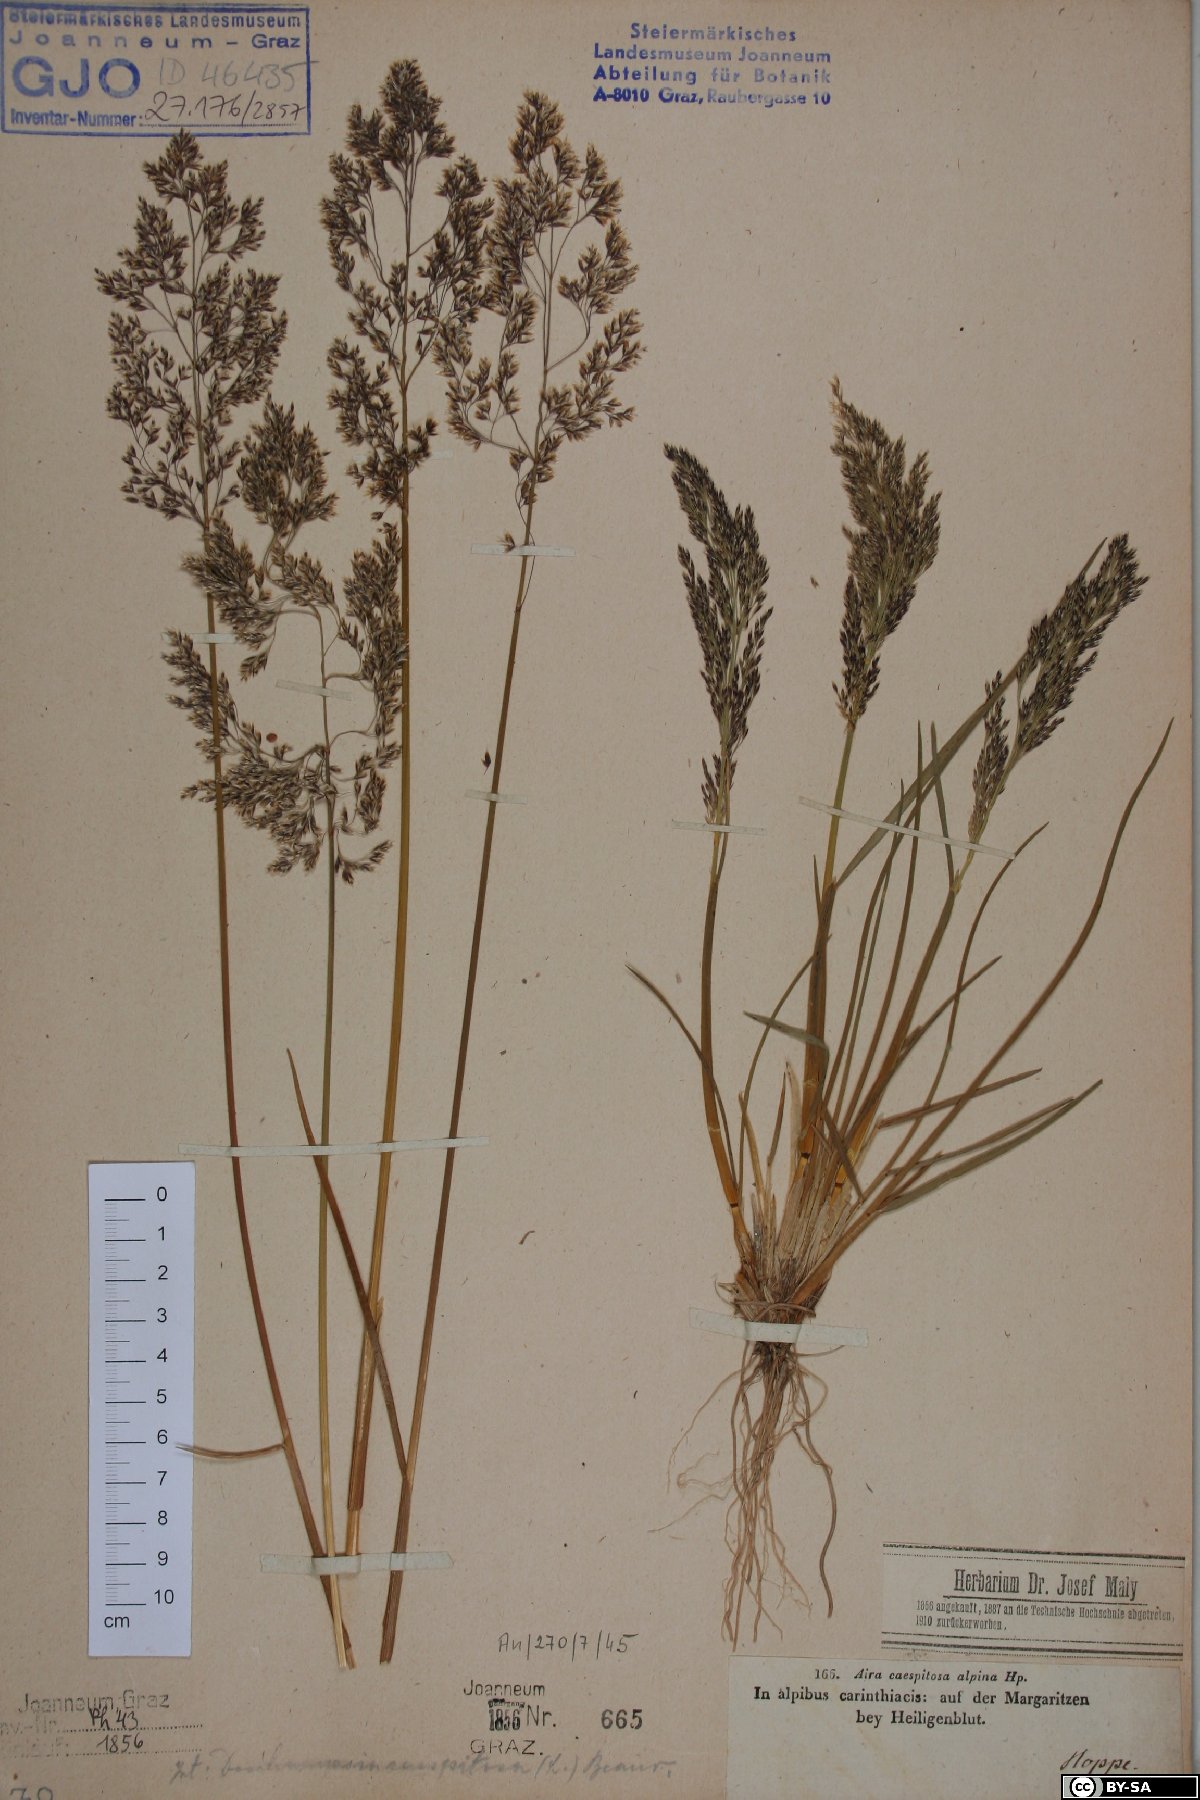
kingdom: Plantae
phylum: Tracheophyta
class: Liliopsida
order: Poales
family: Poaceae
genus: Deschampsia
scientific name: Deschampsia cespitosa
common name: Tufted hair-grass
